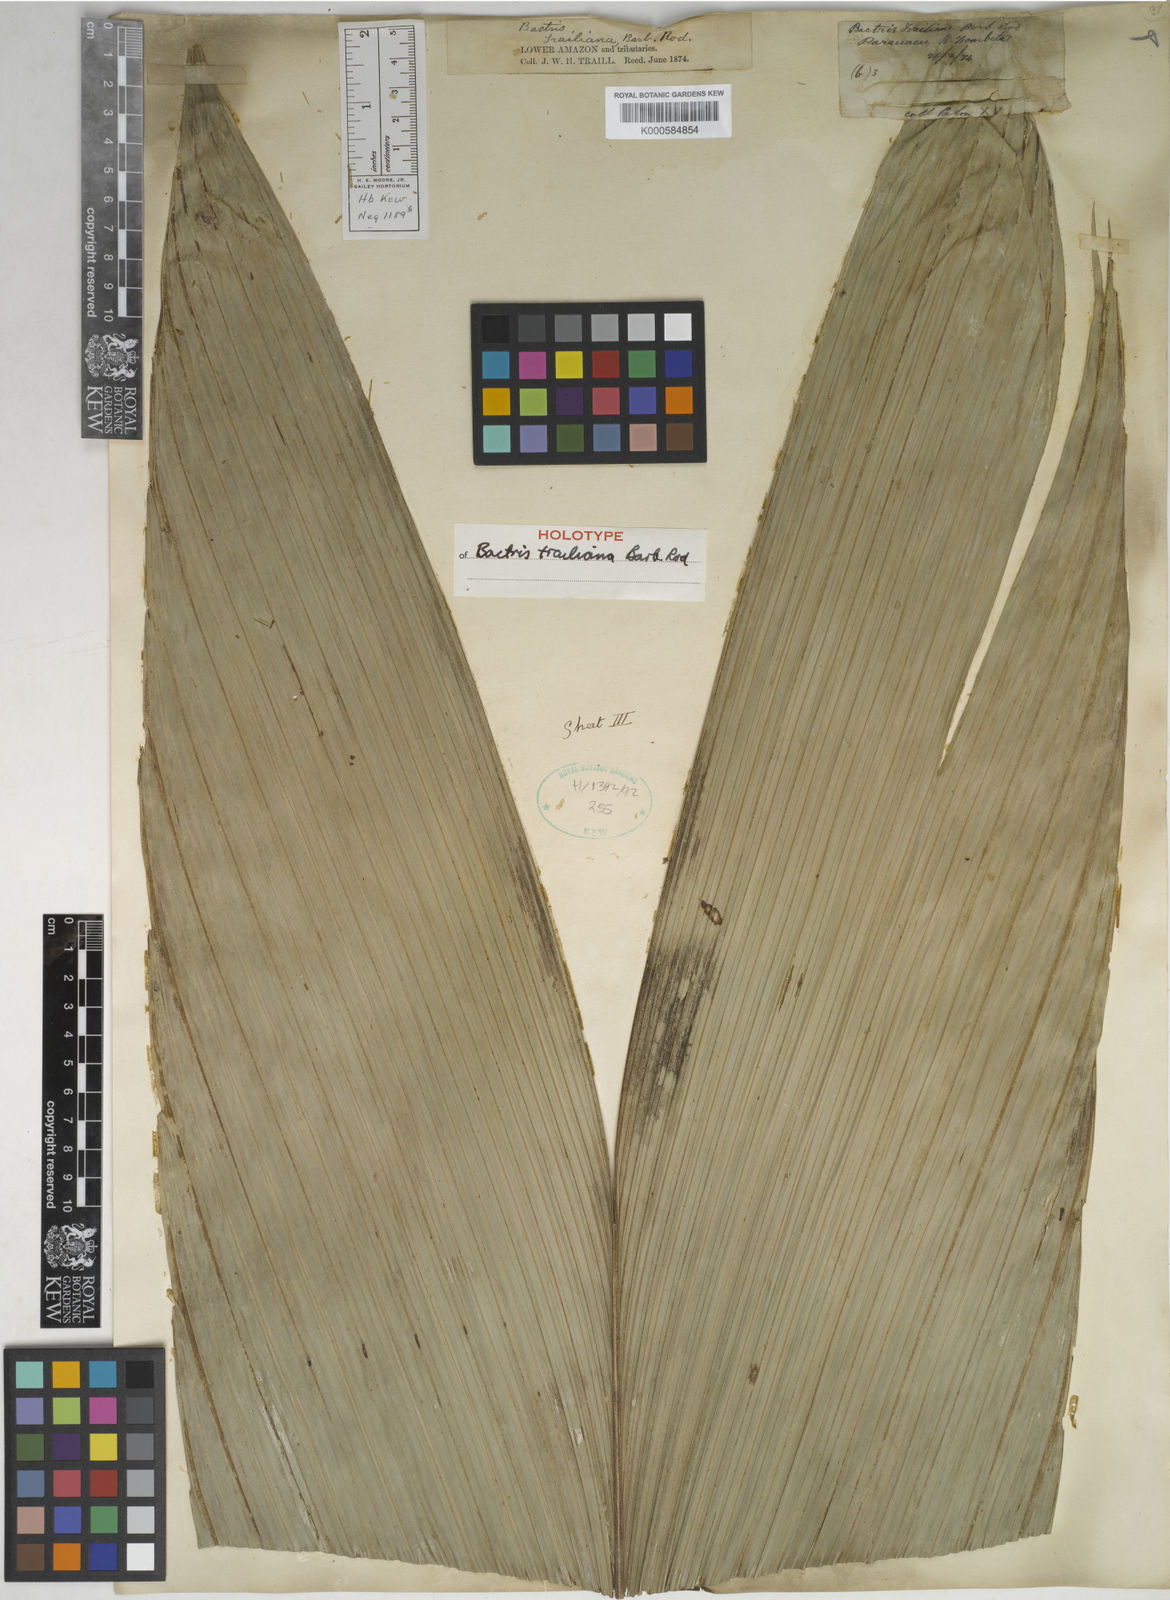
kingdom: Plantae
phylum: Tracheophyta
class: Liliopsida
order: Arecales
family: Arecaceae
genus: Bactris
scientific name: Bactris acanthocarpa
